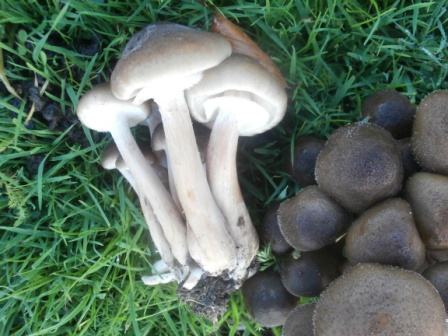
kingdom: Fungi
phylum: Basidiomycota
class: Agaricomycetes
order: Agaricales
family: Physalacriaceae
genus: Armillaria
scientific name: Armillaria mellea
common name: ægte honningsvamp
